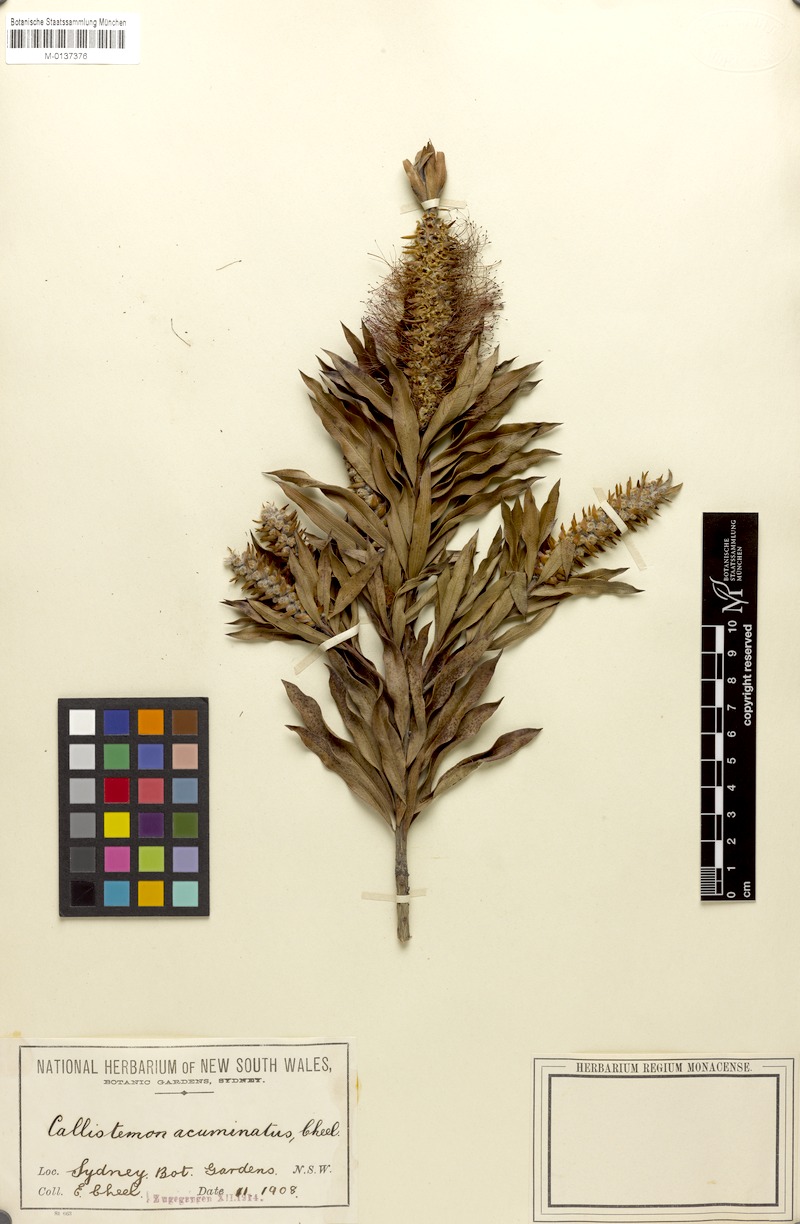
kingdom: Plantae
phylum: Tracheophyta
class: Magnoliopsida
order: Myrtales
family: Myrtaceae
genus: Callistemon
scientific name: Callistemon acuminatus
